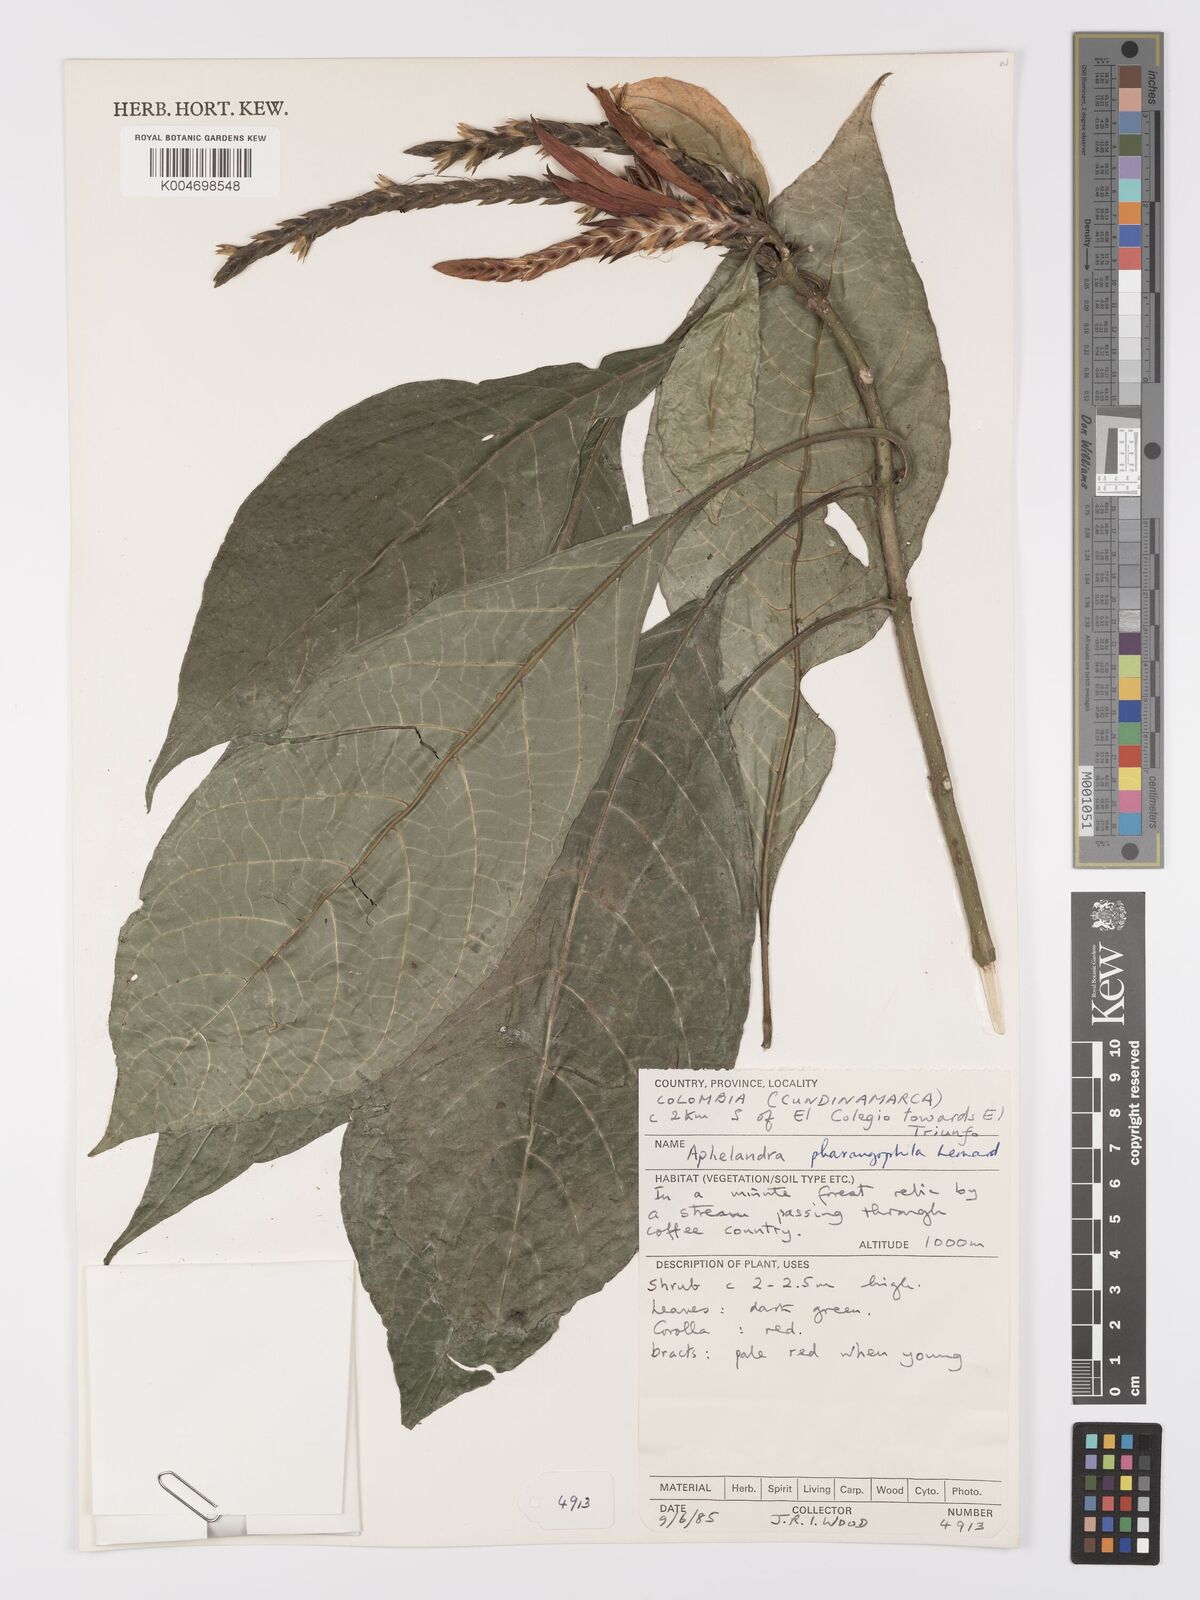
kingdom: Plantae
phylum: Tracheophyta
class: Magnoliopsida
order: Lamiales
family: Acanthaceae
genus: Aphelandra
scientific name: Aphelandra pharangophila
